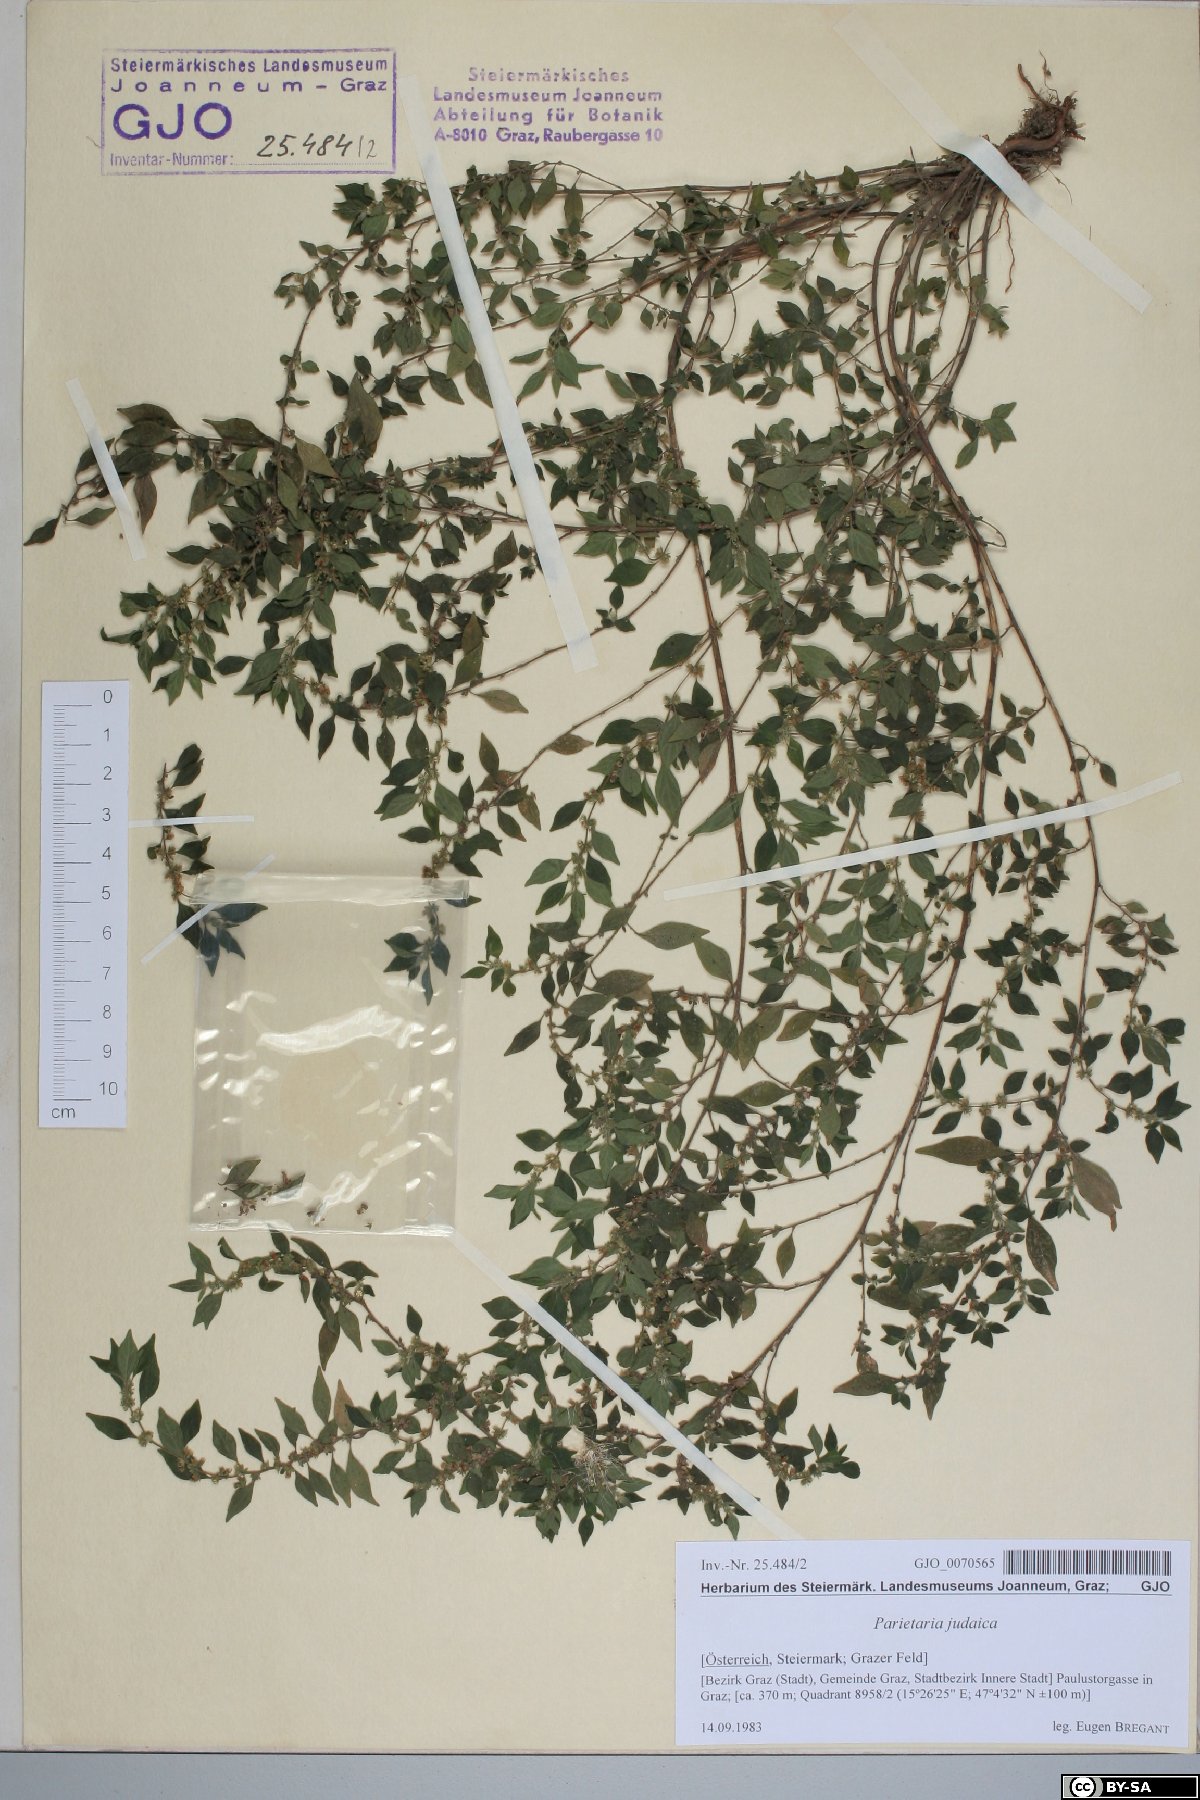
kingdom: Plantae
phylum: Tracheophyta
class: Magnoliopsida
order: Rosales
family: Urticaceae
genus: Parietaria
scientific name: Parietaria judaica
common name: Pellitory-of-the-wall
